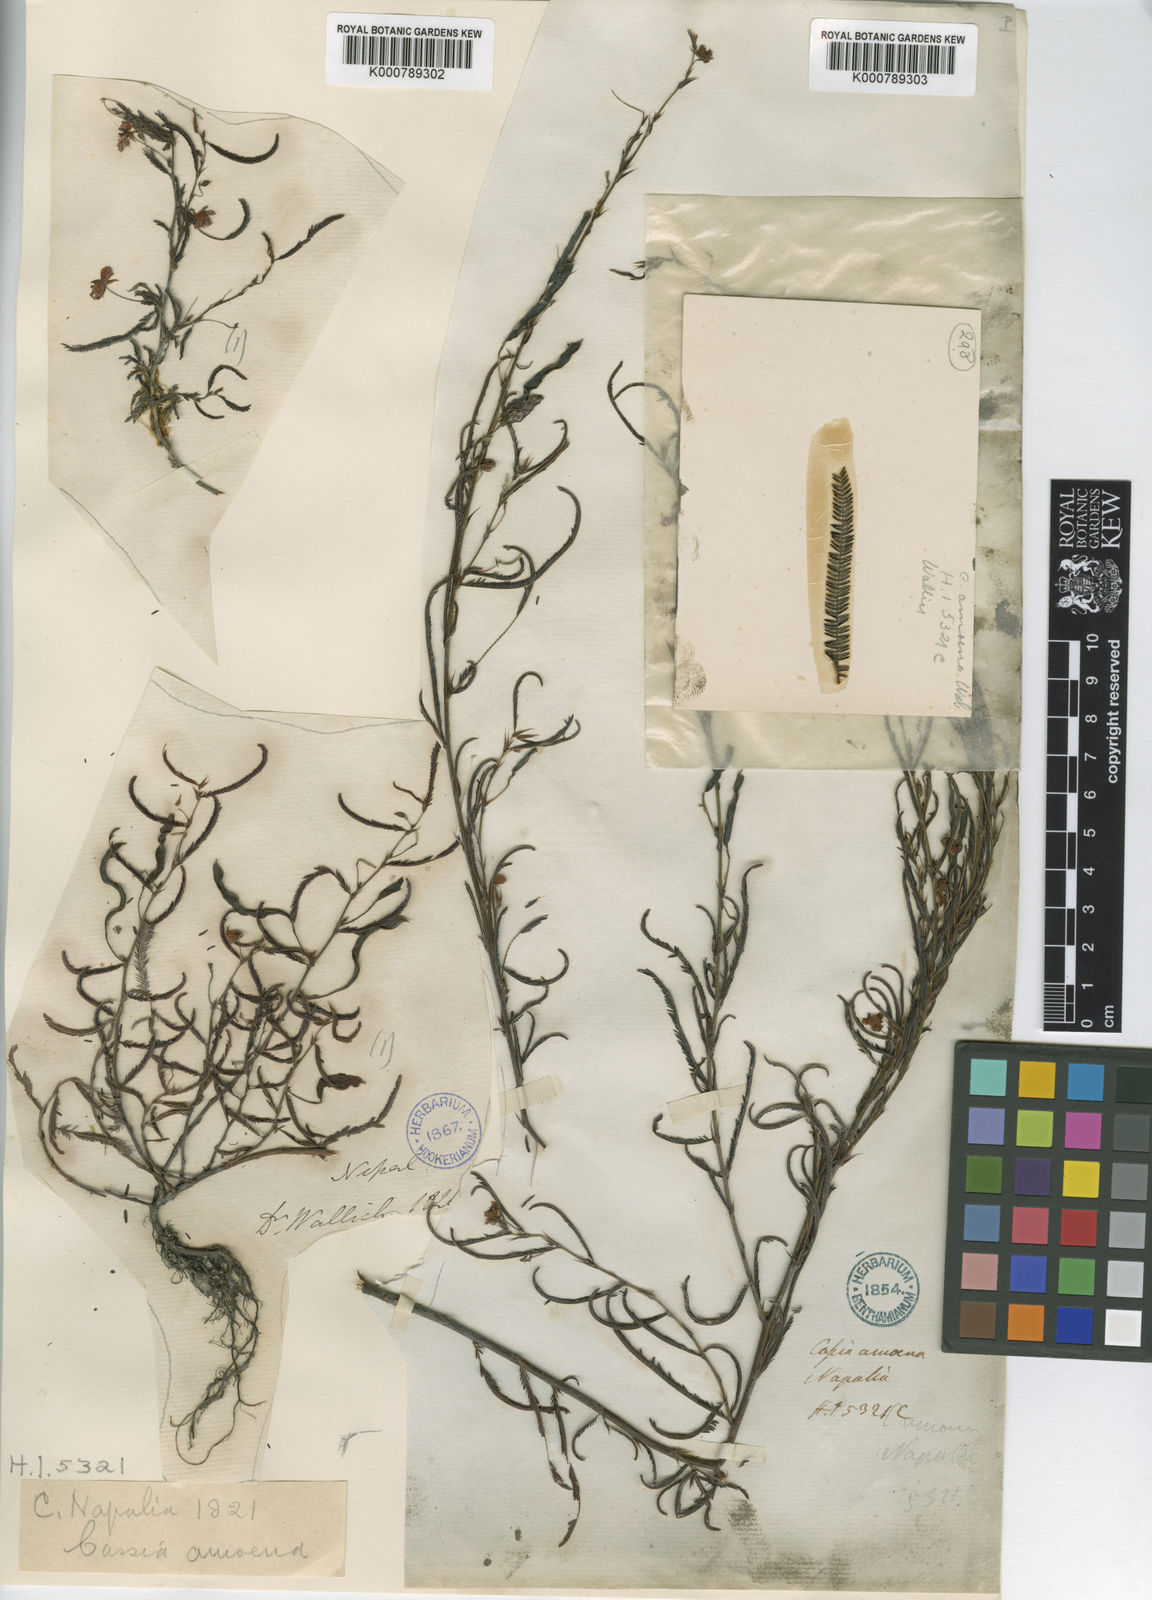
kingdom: Plantae
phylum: Tracheophyta
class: Magnoliopsida
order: Fabales
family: Fabaceae
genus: Chamaecrista
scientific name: Chamaecrista mimosoides
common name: Fish-bone cassia
